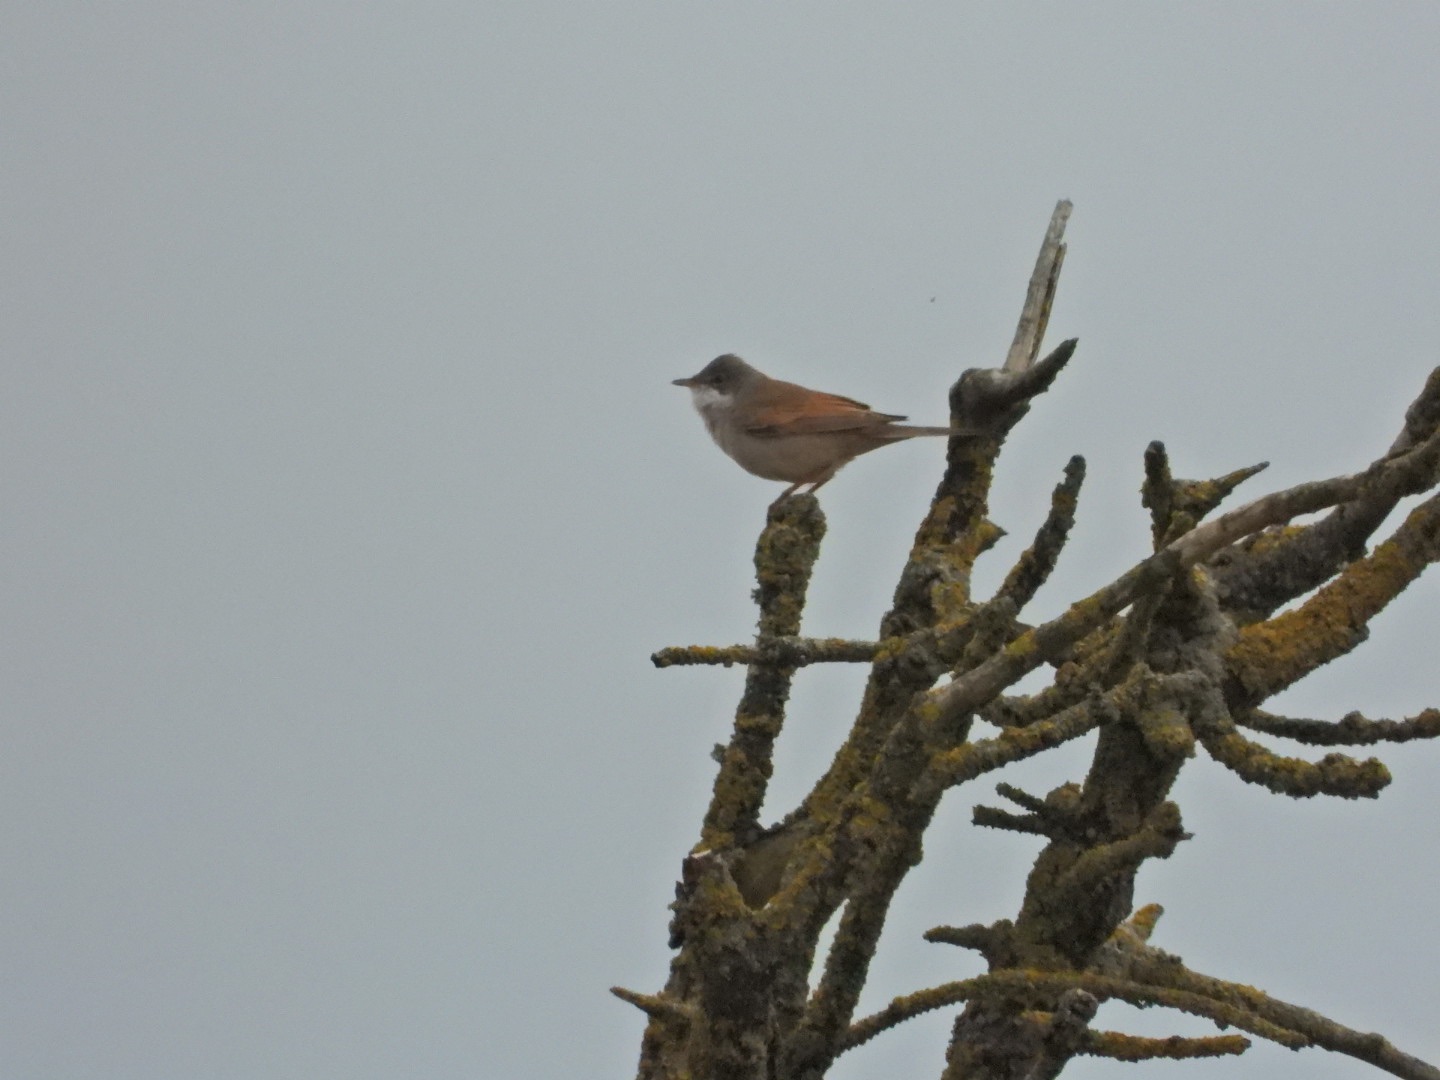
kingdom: Animalia
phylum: Chordata
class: Aves
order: Passeriformes
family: Sylviidae
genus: Sylvia
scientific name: Sylvia communis
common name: Tornsanger
